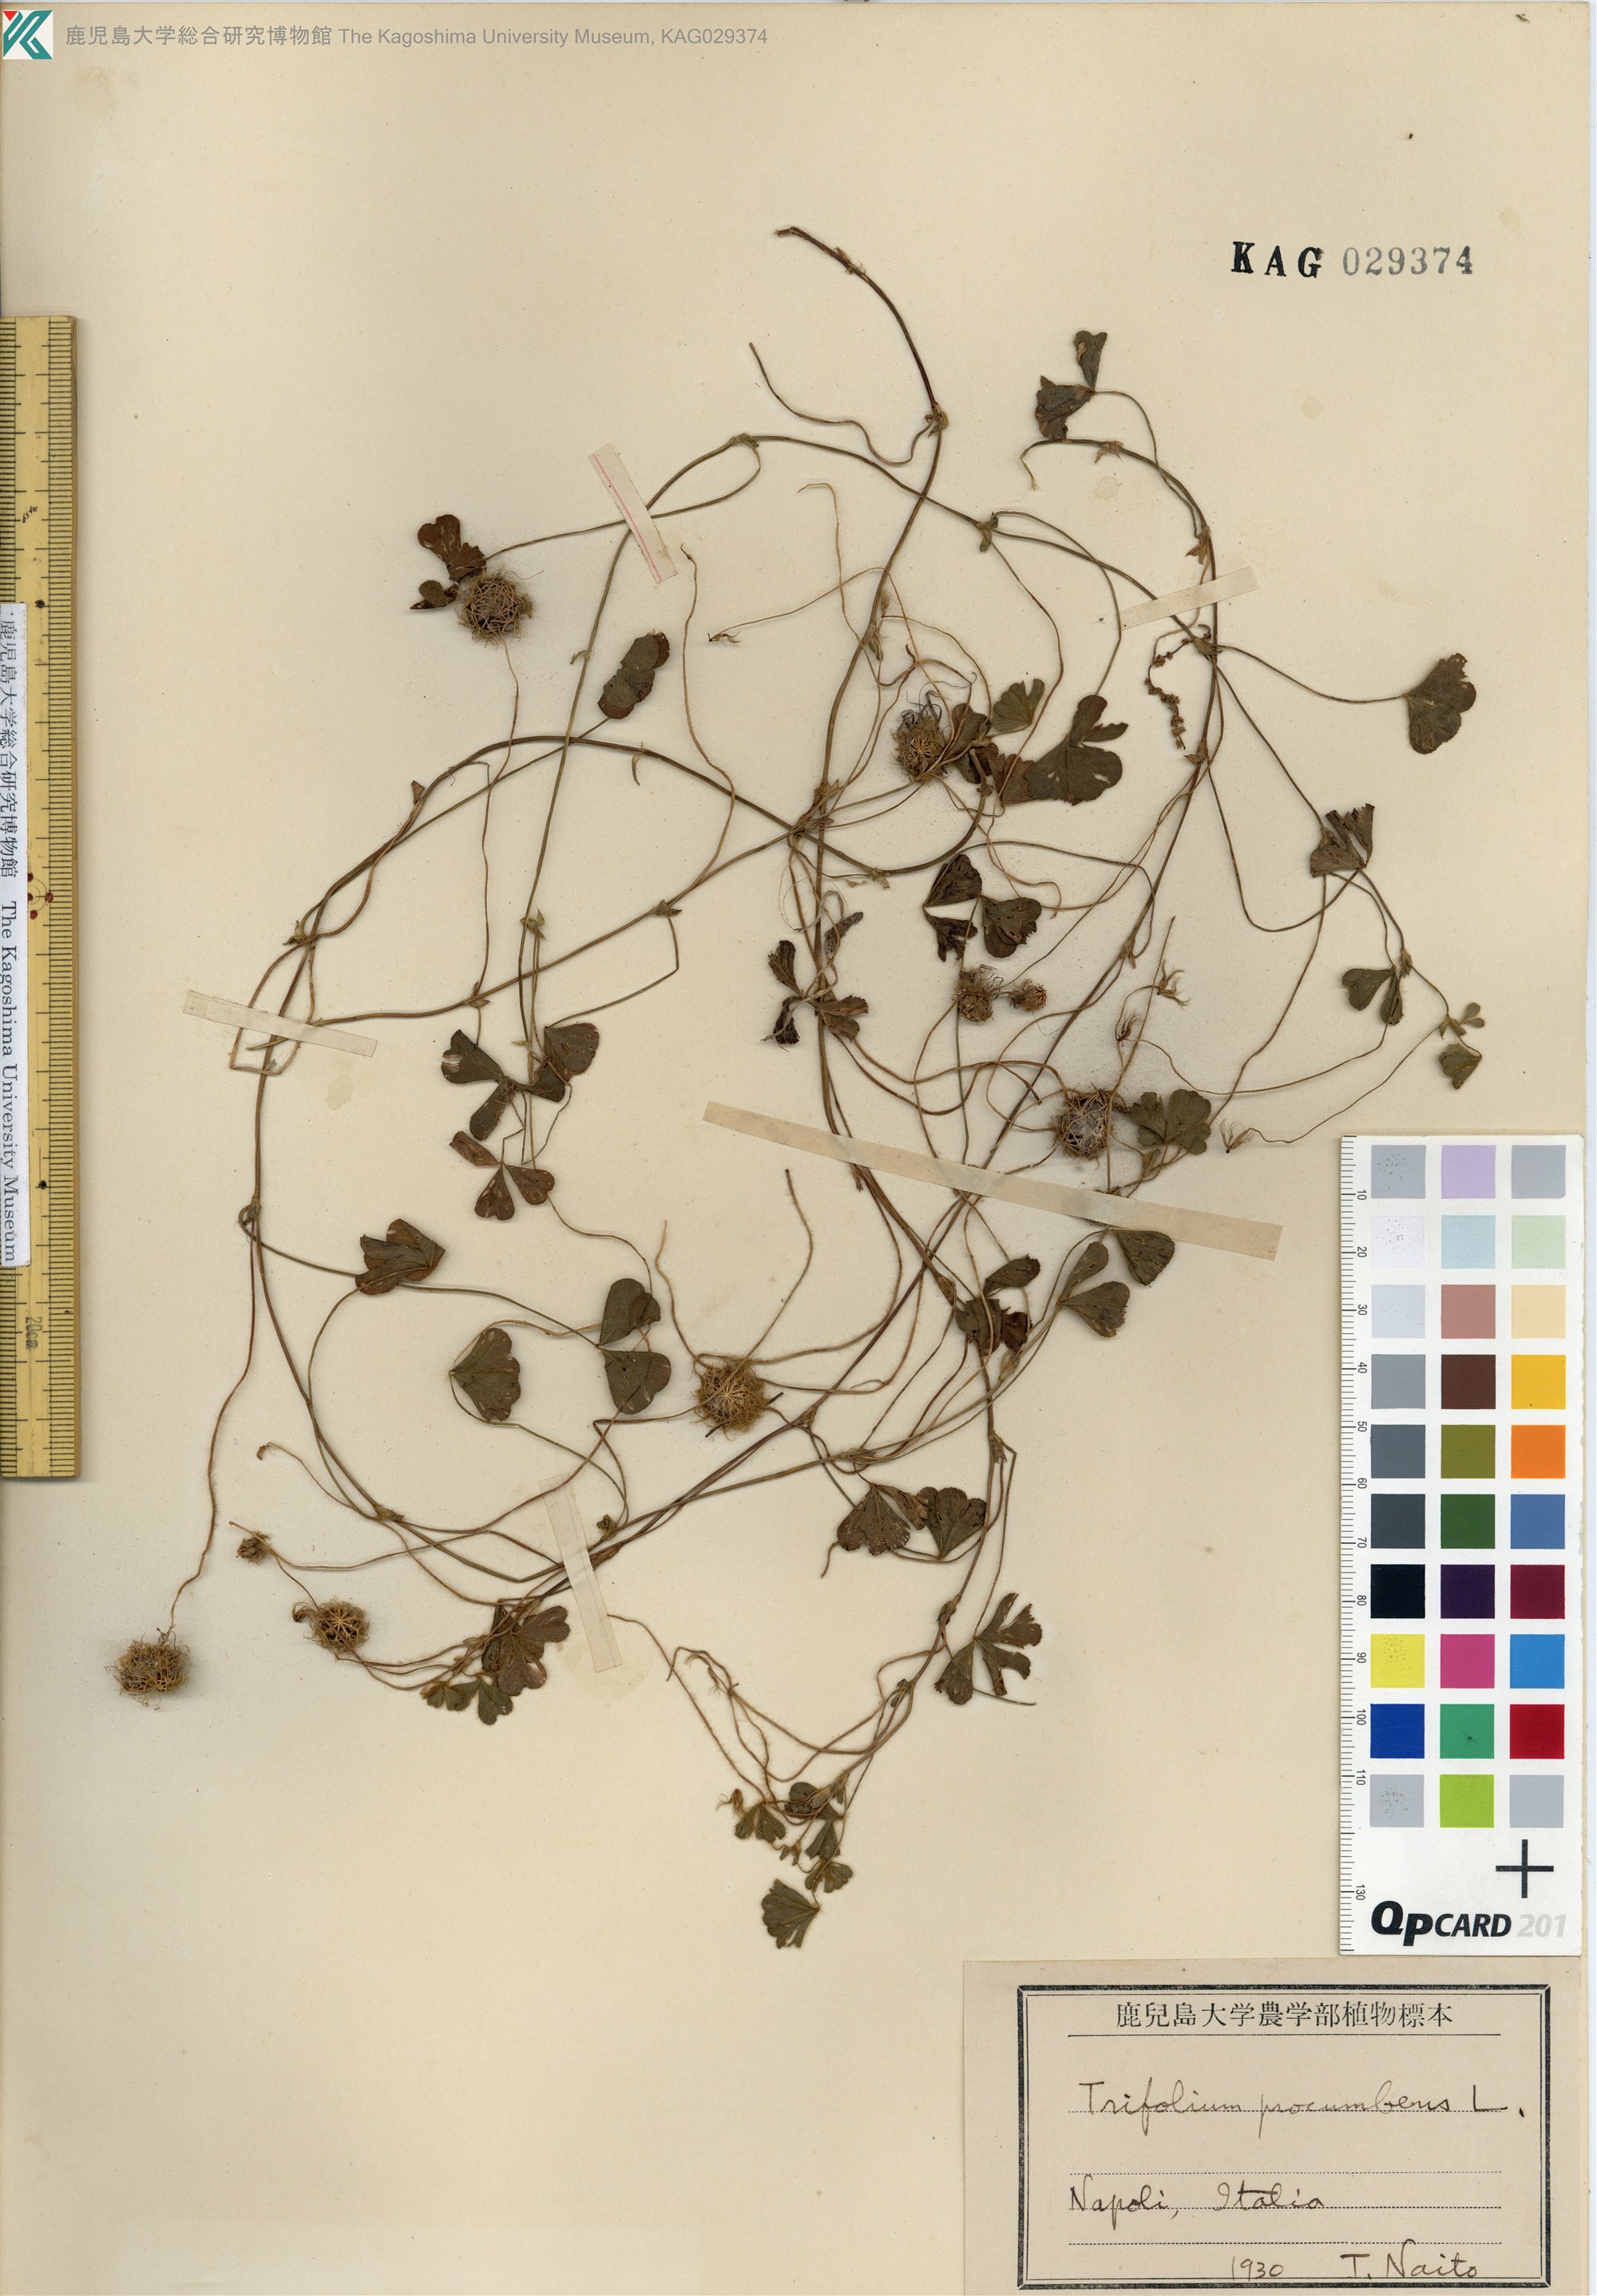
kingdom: Plantae
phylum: Tracheophyta
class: Magnoliopsida
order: Fabales
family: Fabaceae
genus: Trifolium
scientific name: Trifolium campestre
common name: Field clover
